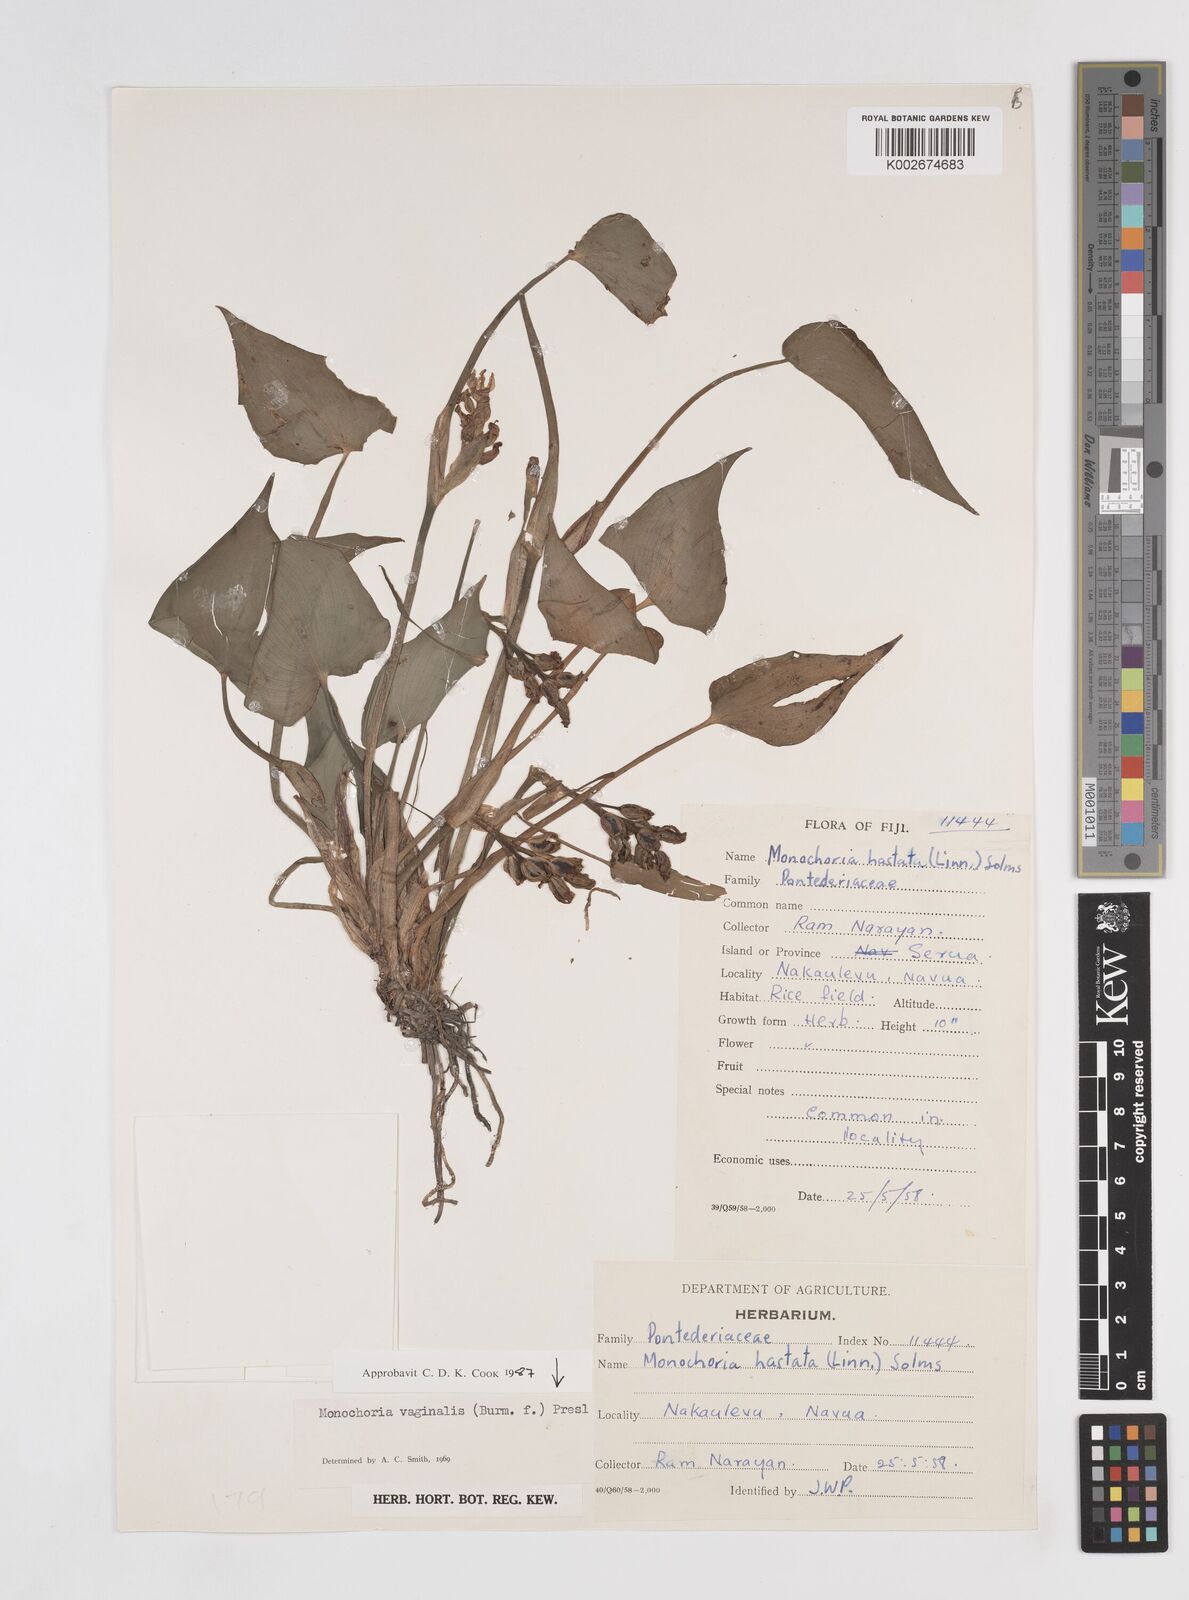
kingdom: Plantae
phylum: Tracheophyta
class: Liliopsida
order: Commelinales
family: Pontederiaceae
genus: Pontederia
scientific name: Pontederia vaginalis
